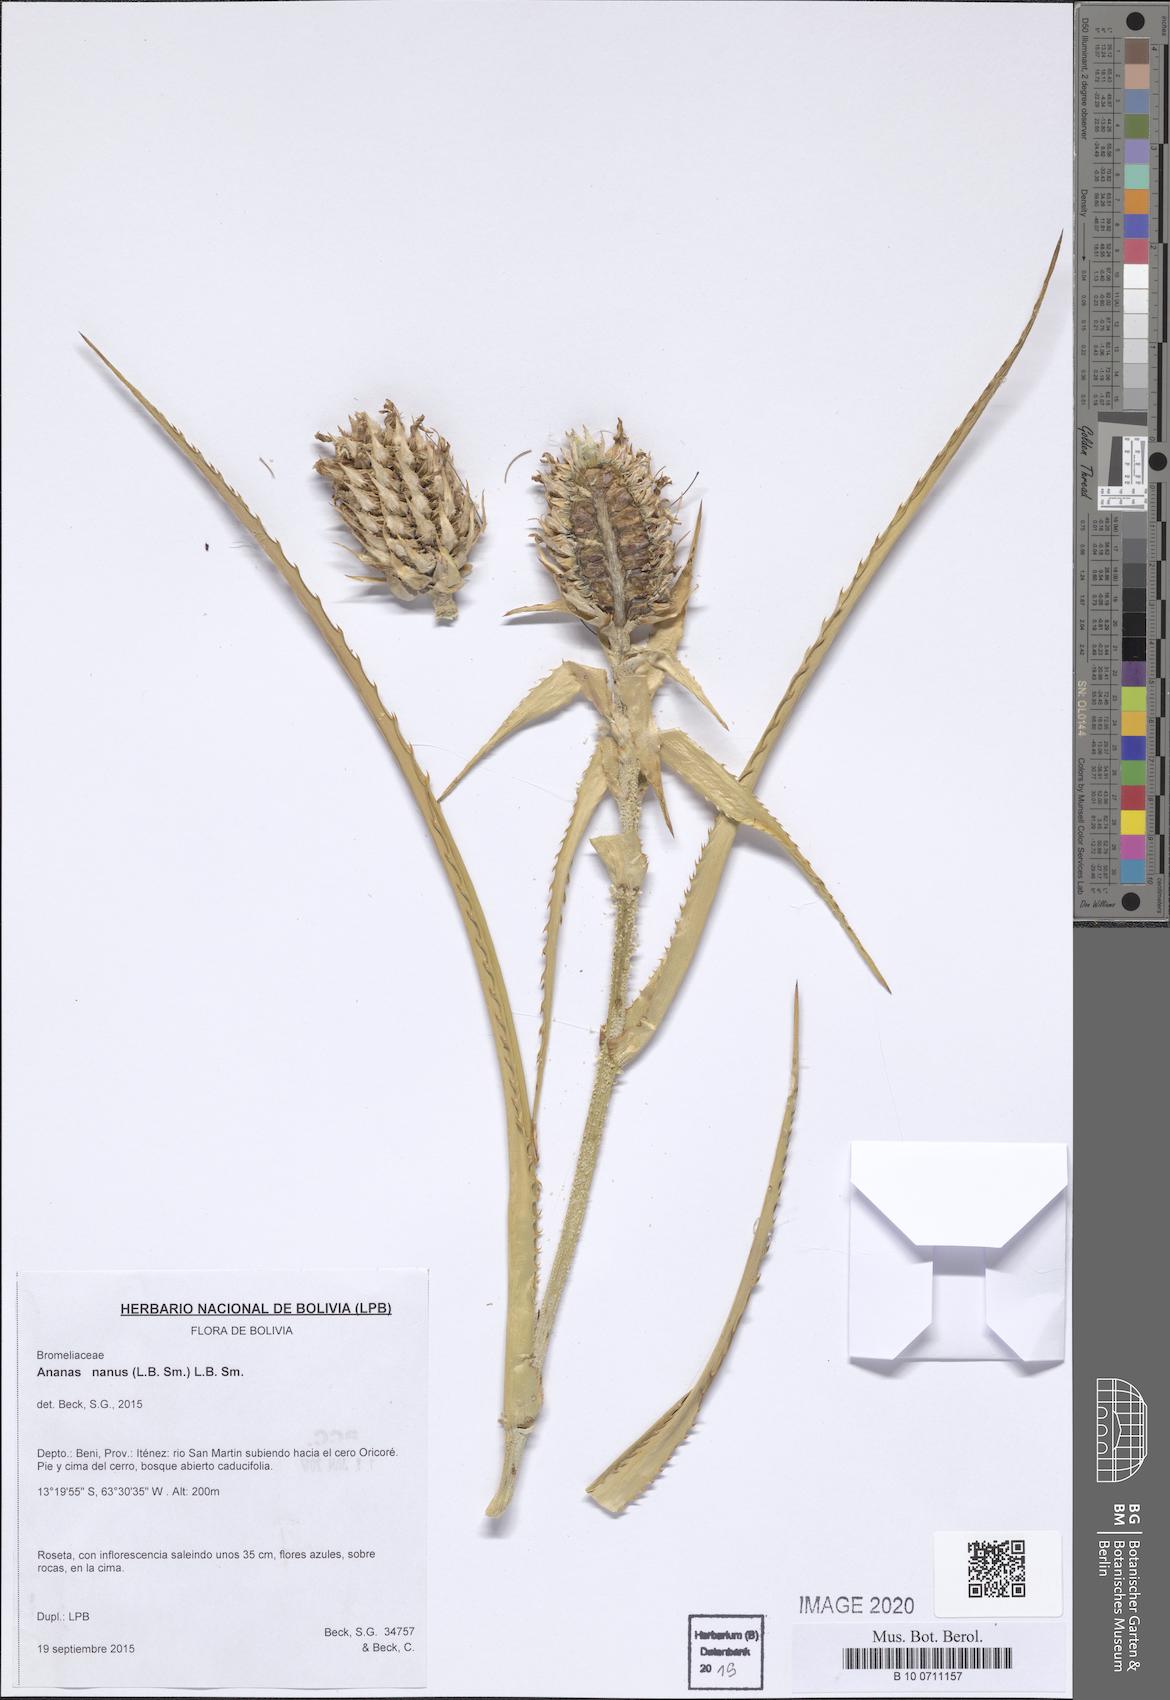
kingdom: Plantae
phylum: Tracheophyta
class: Liliopsida
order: Poales
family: Bromeliaceae
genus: Ananas
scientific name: Ananas comosus
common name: Pineapple
